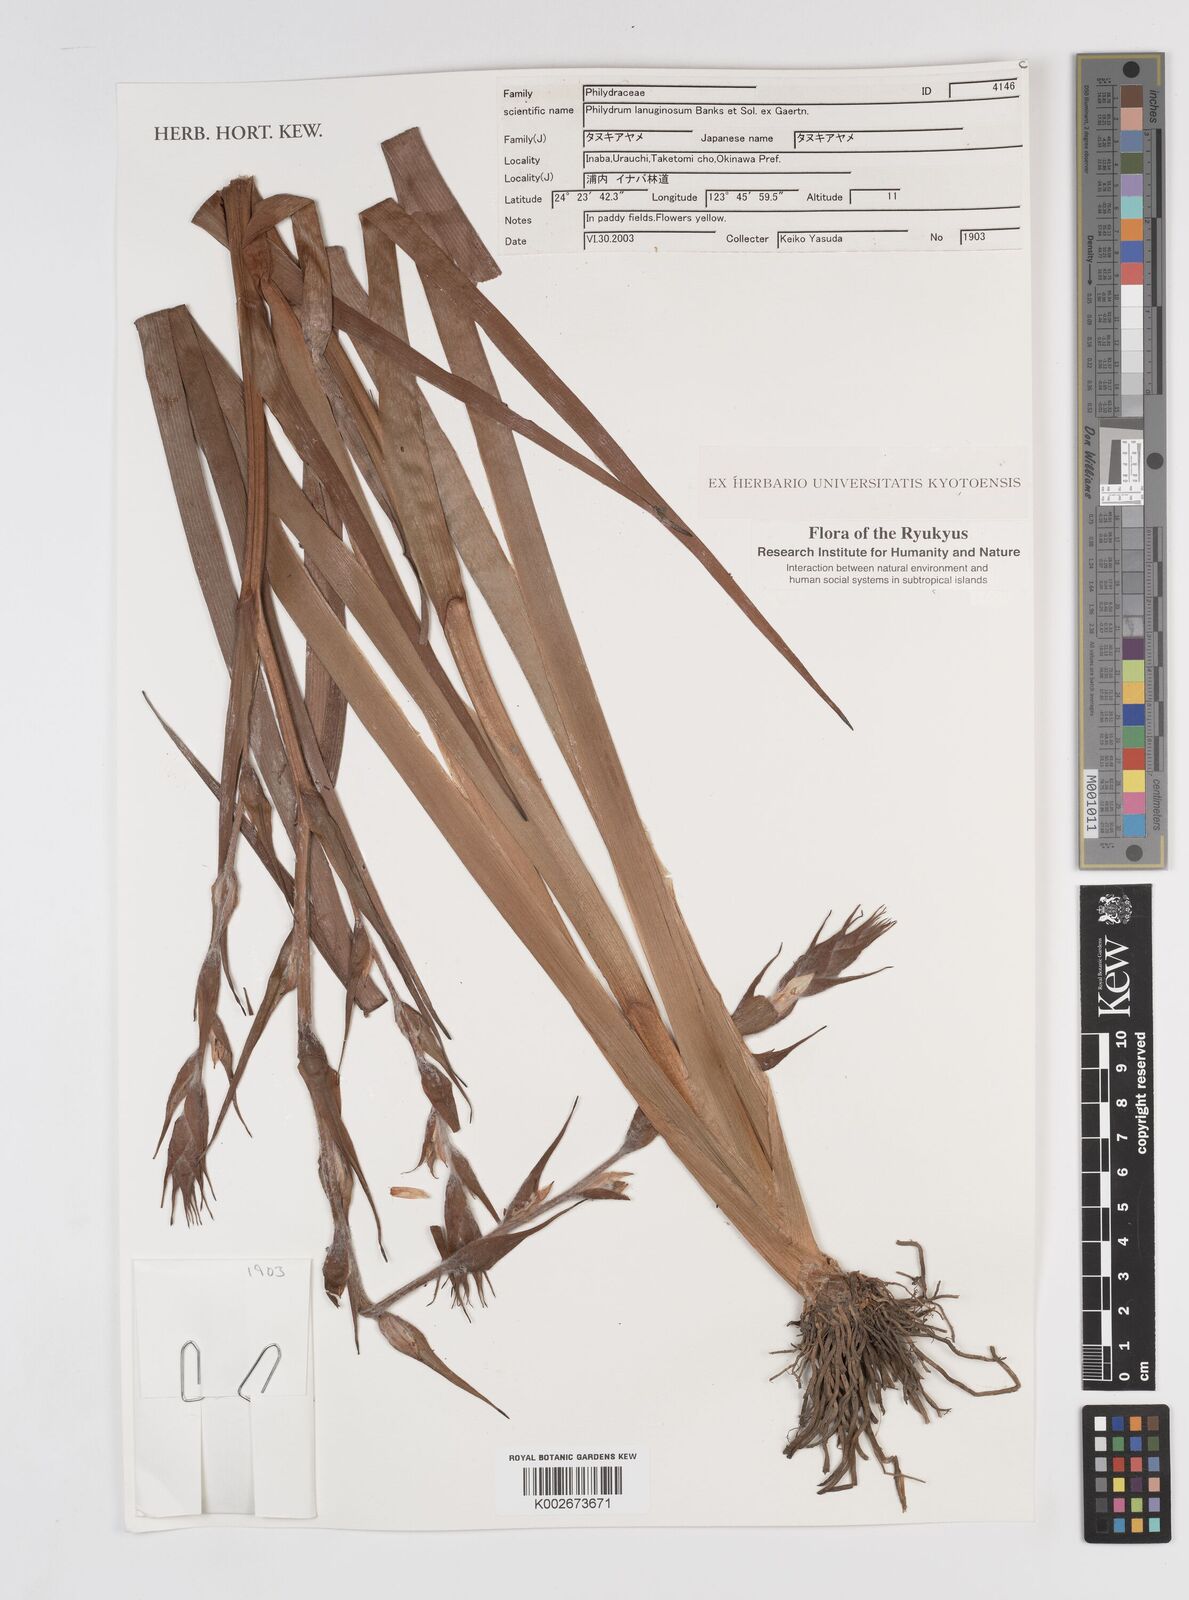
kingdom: Plantae
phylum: Tracheophyta
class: Liliopsida
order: Commelinales
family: Philydraceae
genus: Philydrum
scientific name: Philydrum lanuginosum
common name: Woolly frog's mouth
